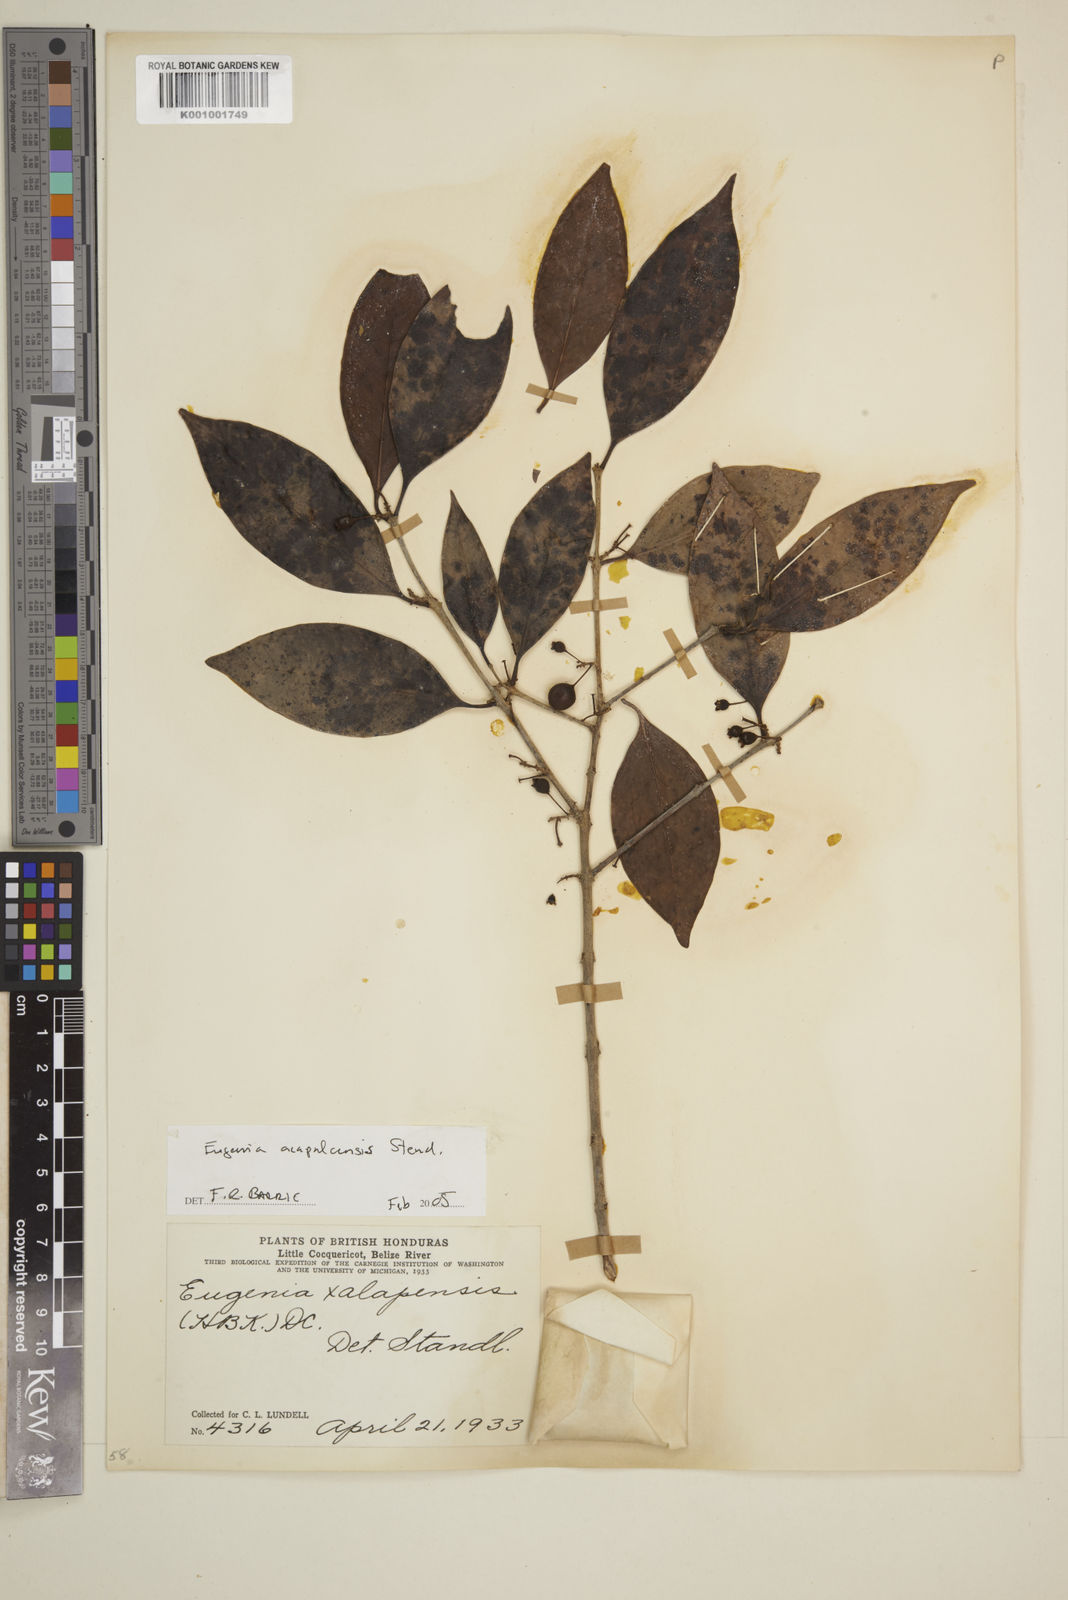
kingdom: Plantae
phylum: Tracheophyta
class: Magnoliopsida
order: Myrtales
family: Myrtaceae
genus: Eugenia
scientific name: Eugenia acapulcensis
